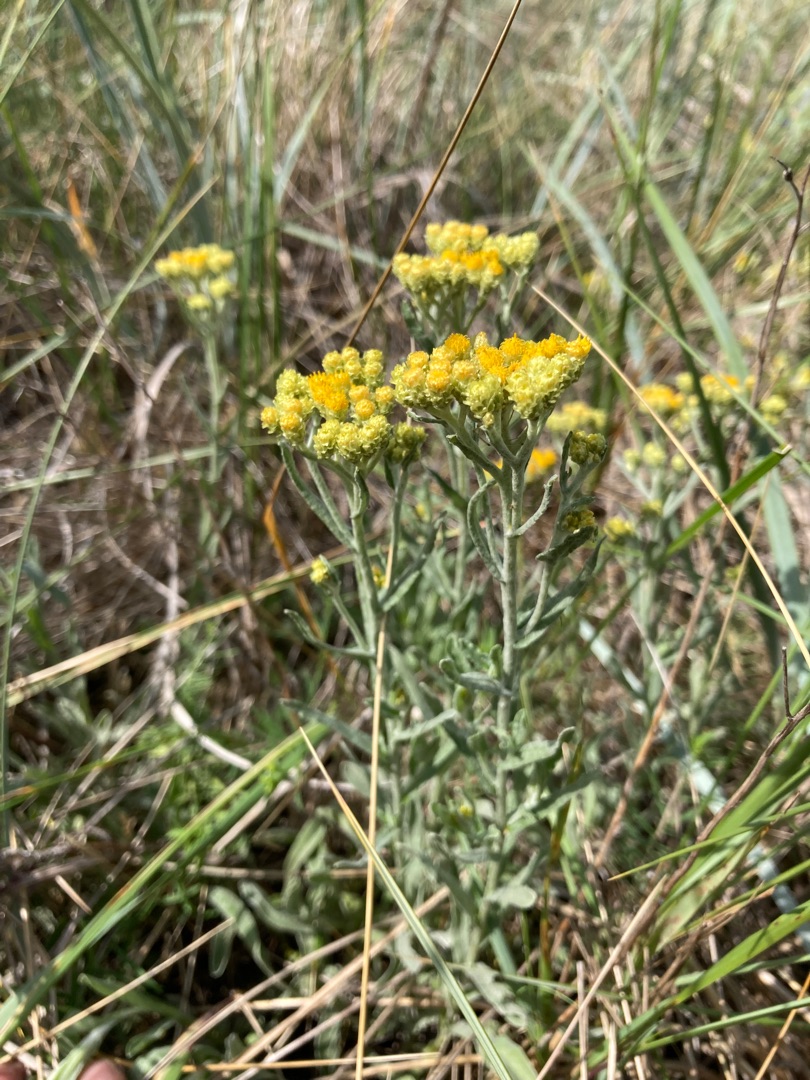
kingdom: Plantae
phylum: Tracheophyta
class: Magnoliopsida
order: Asterales
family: Asteraceae
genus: Helichrysum
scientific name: Helichrysum arenarium
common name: Gul evighedsblomst
